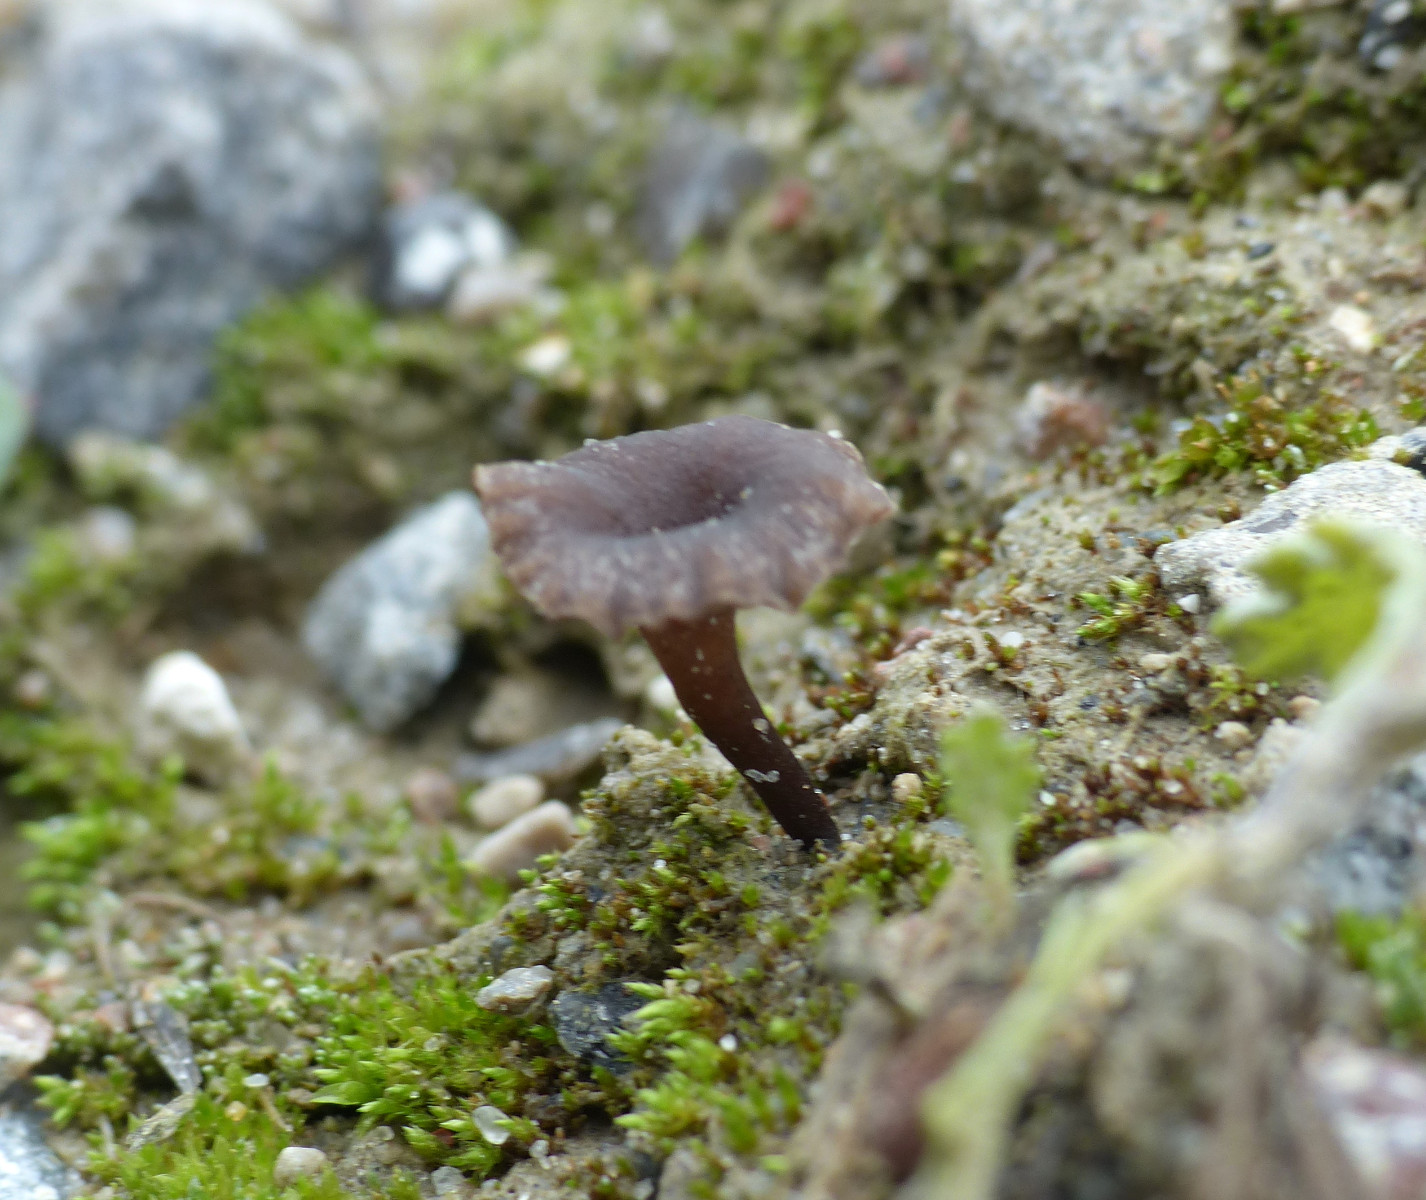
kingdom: Fungi
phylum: Basidiomycota
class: Agaricomycetes
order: Agaricales
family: Tricholomataceae
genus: Omphalina
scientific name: Omphalina
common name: navlehat
